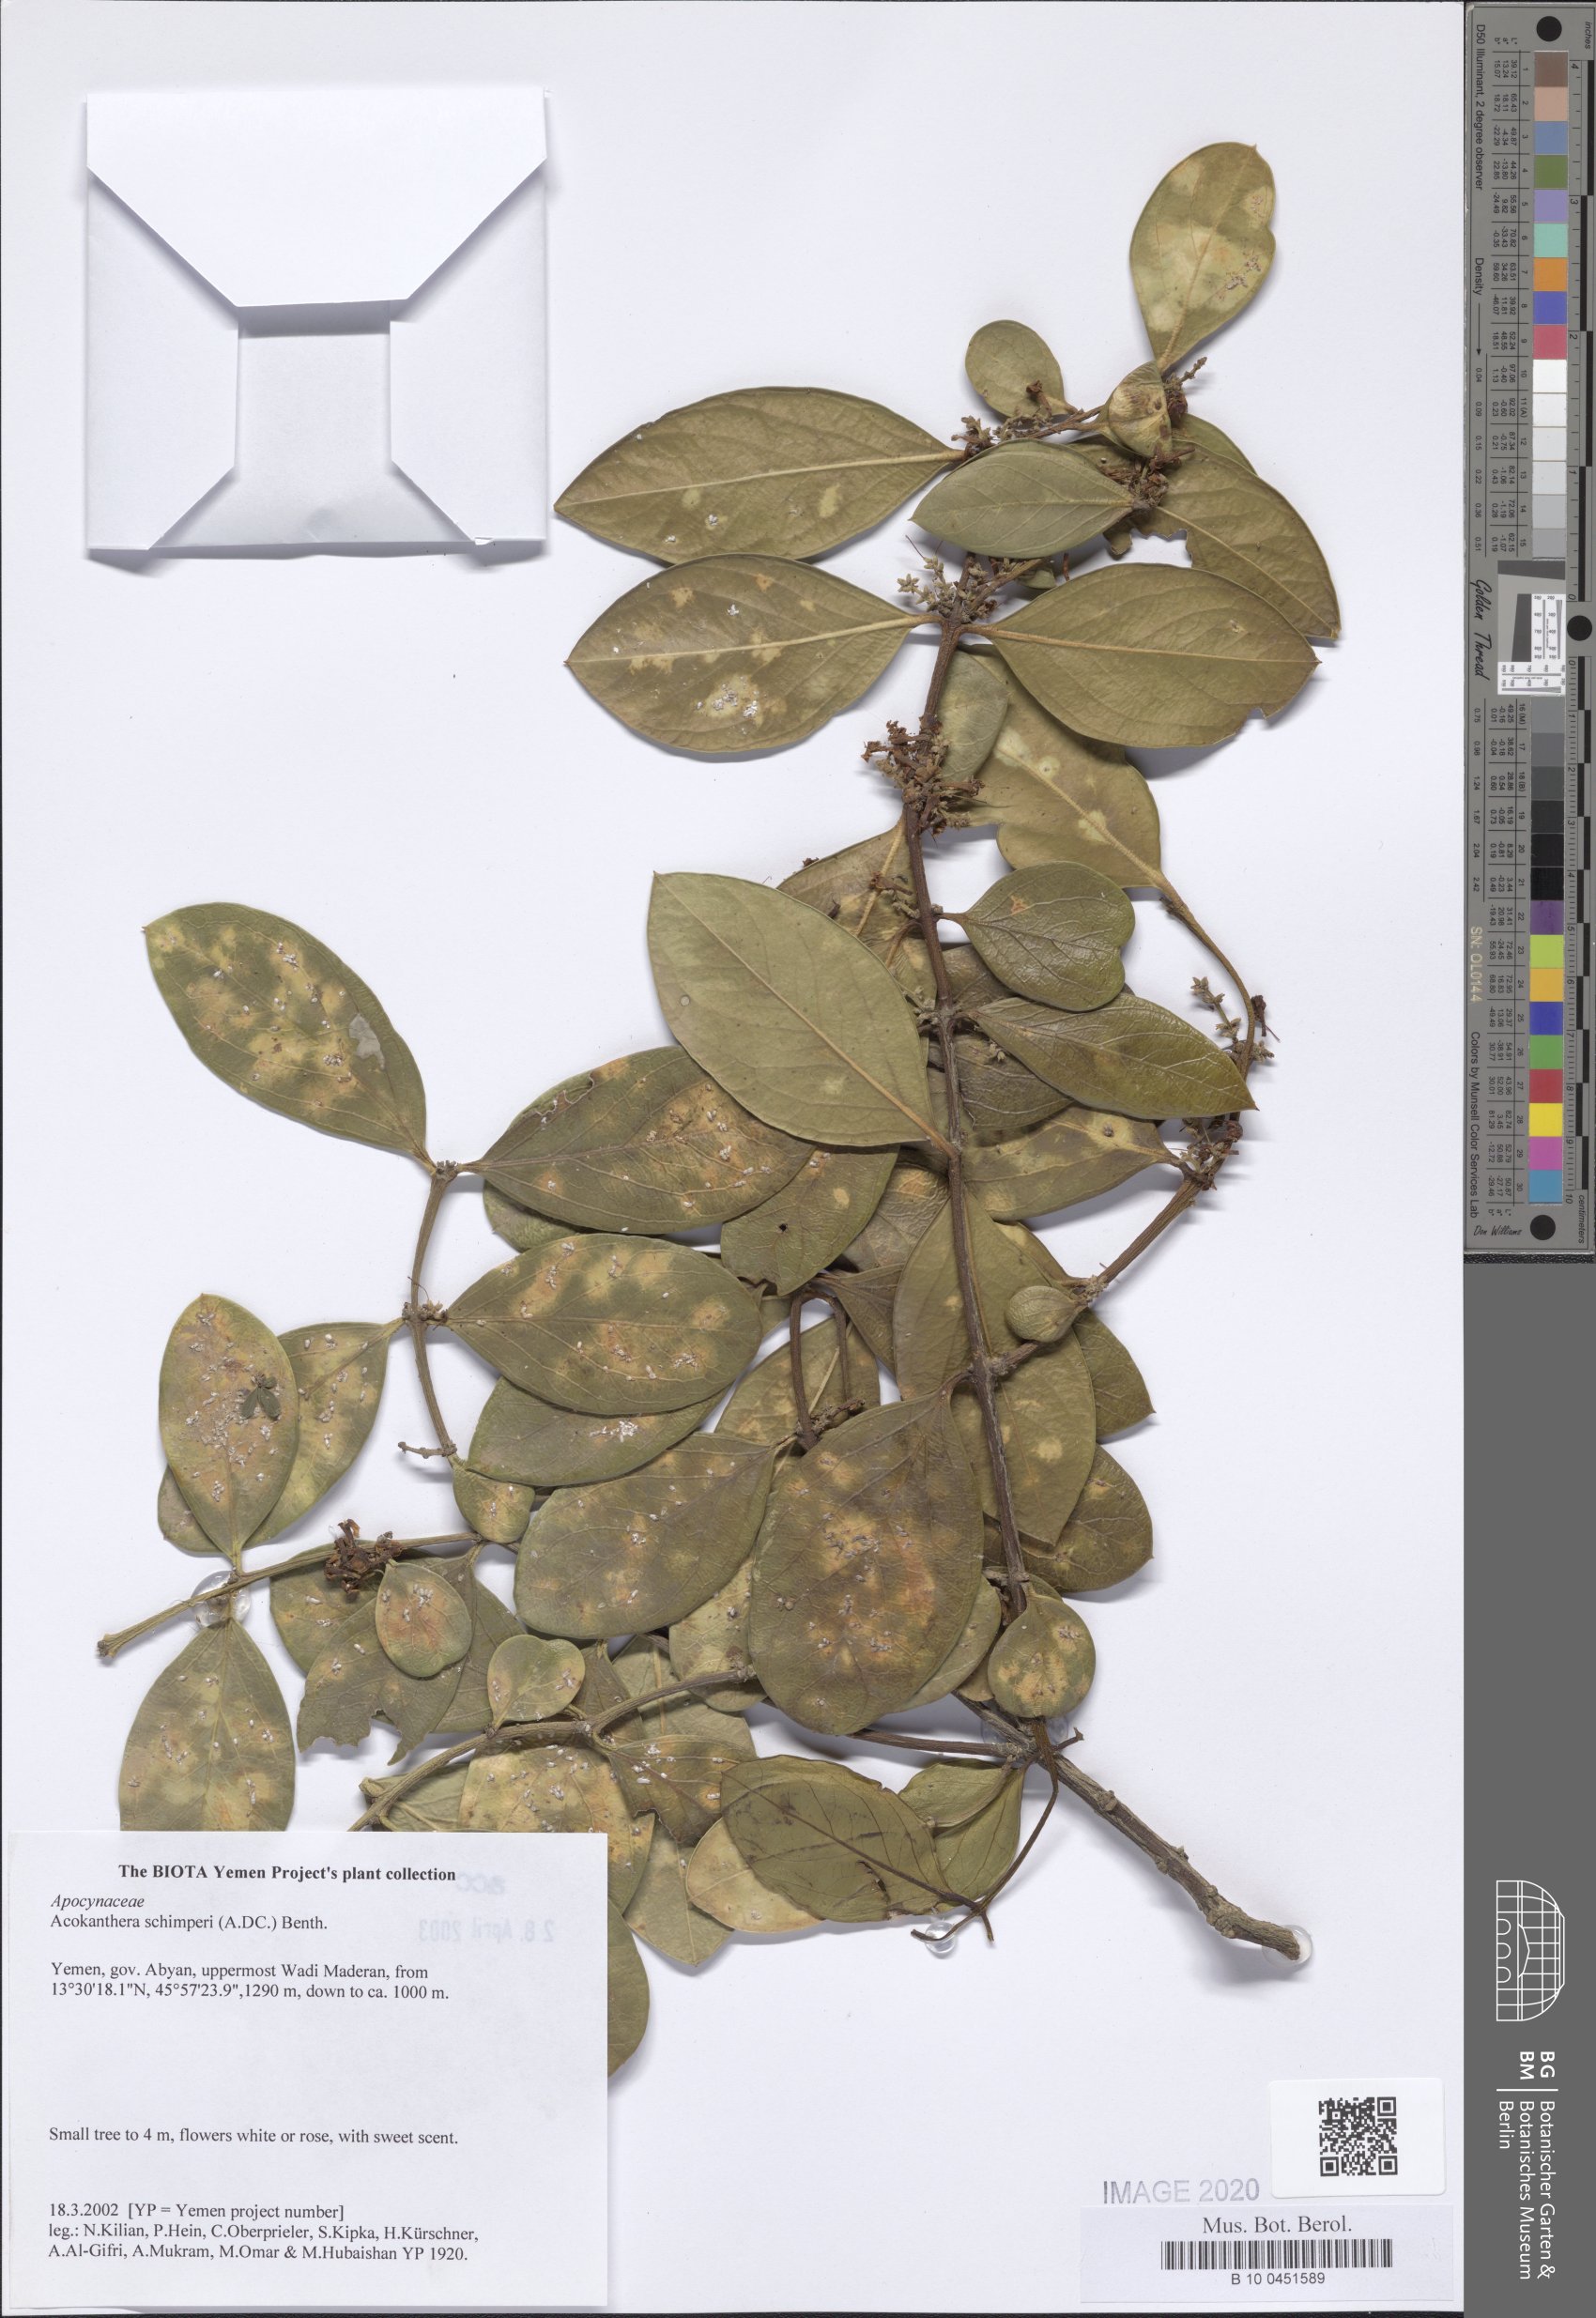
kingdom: Plantae
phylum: Tracheophyta
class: Magnoliopsida
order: Gentianales
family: Apocynaceae
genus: Acokanthera
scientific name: Acokanthera schimperi
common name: Arrow-poison-tree
